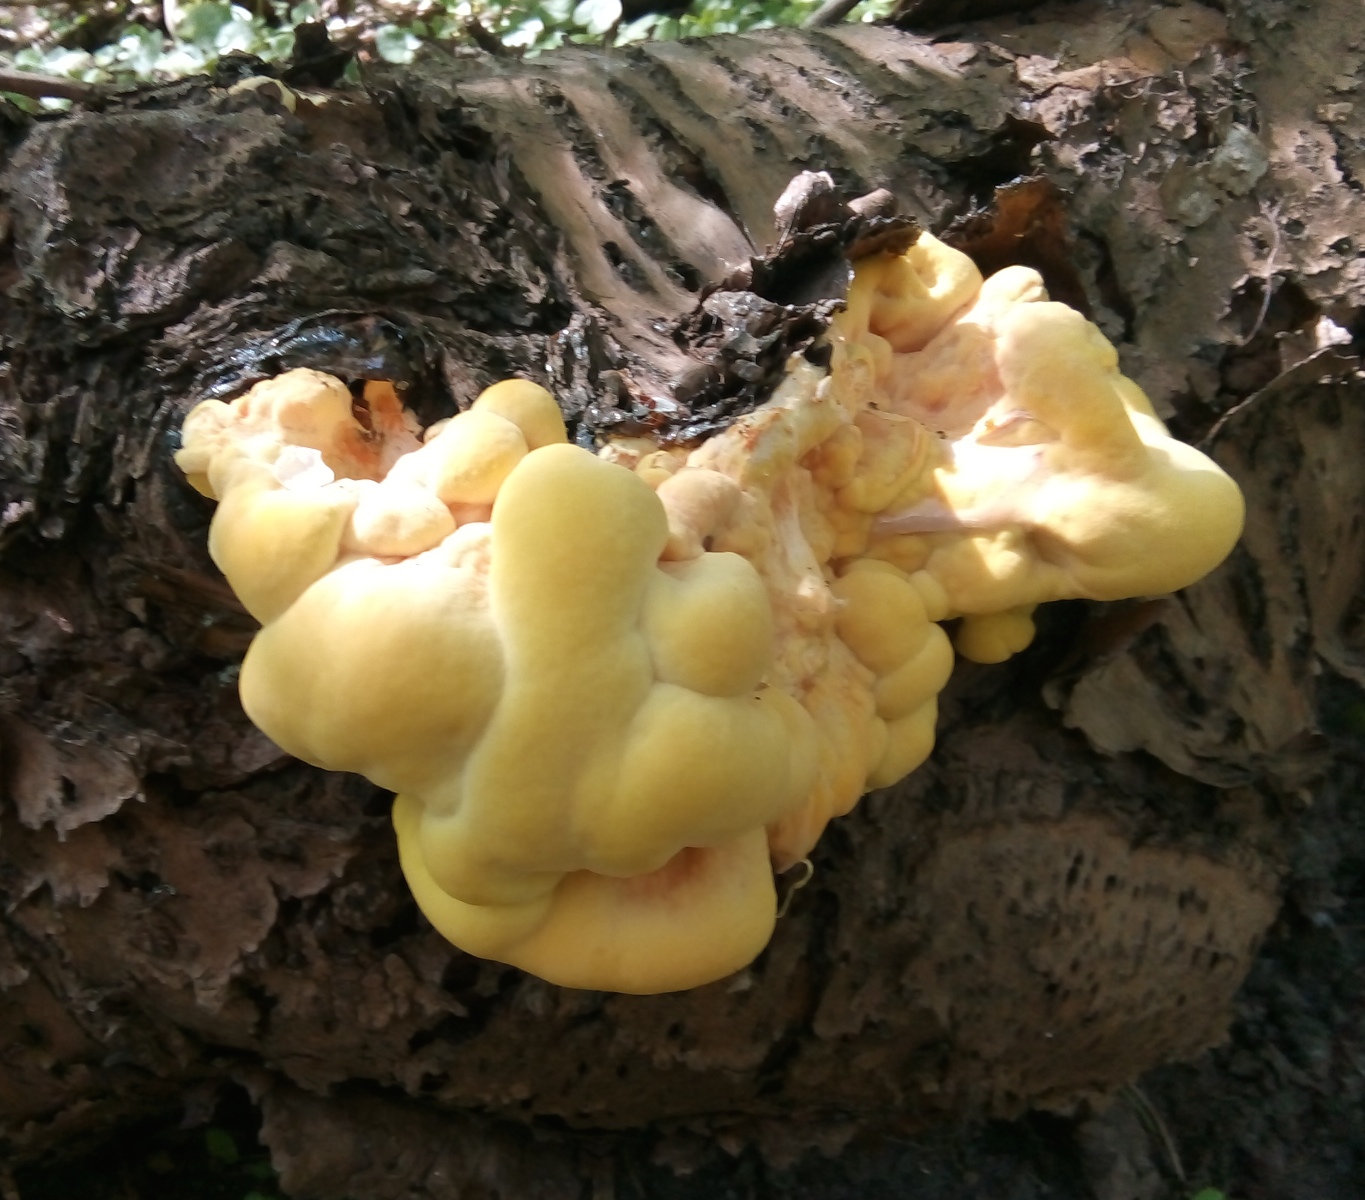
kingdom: Fungi
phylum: Basidiomycota
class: Agaricomycetes
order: Polyporales
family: Laetiporaceae
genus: Laetiporus
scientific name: Laetiporus sulphureus
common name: svovlporesvamp
